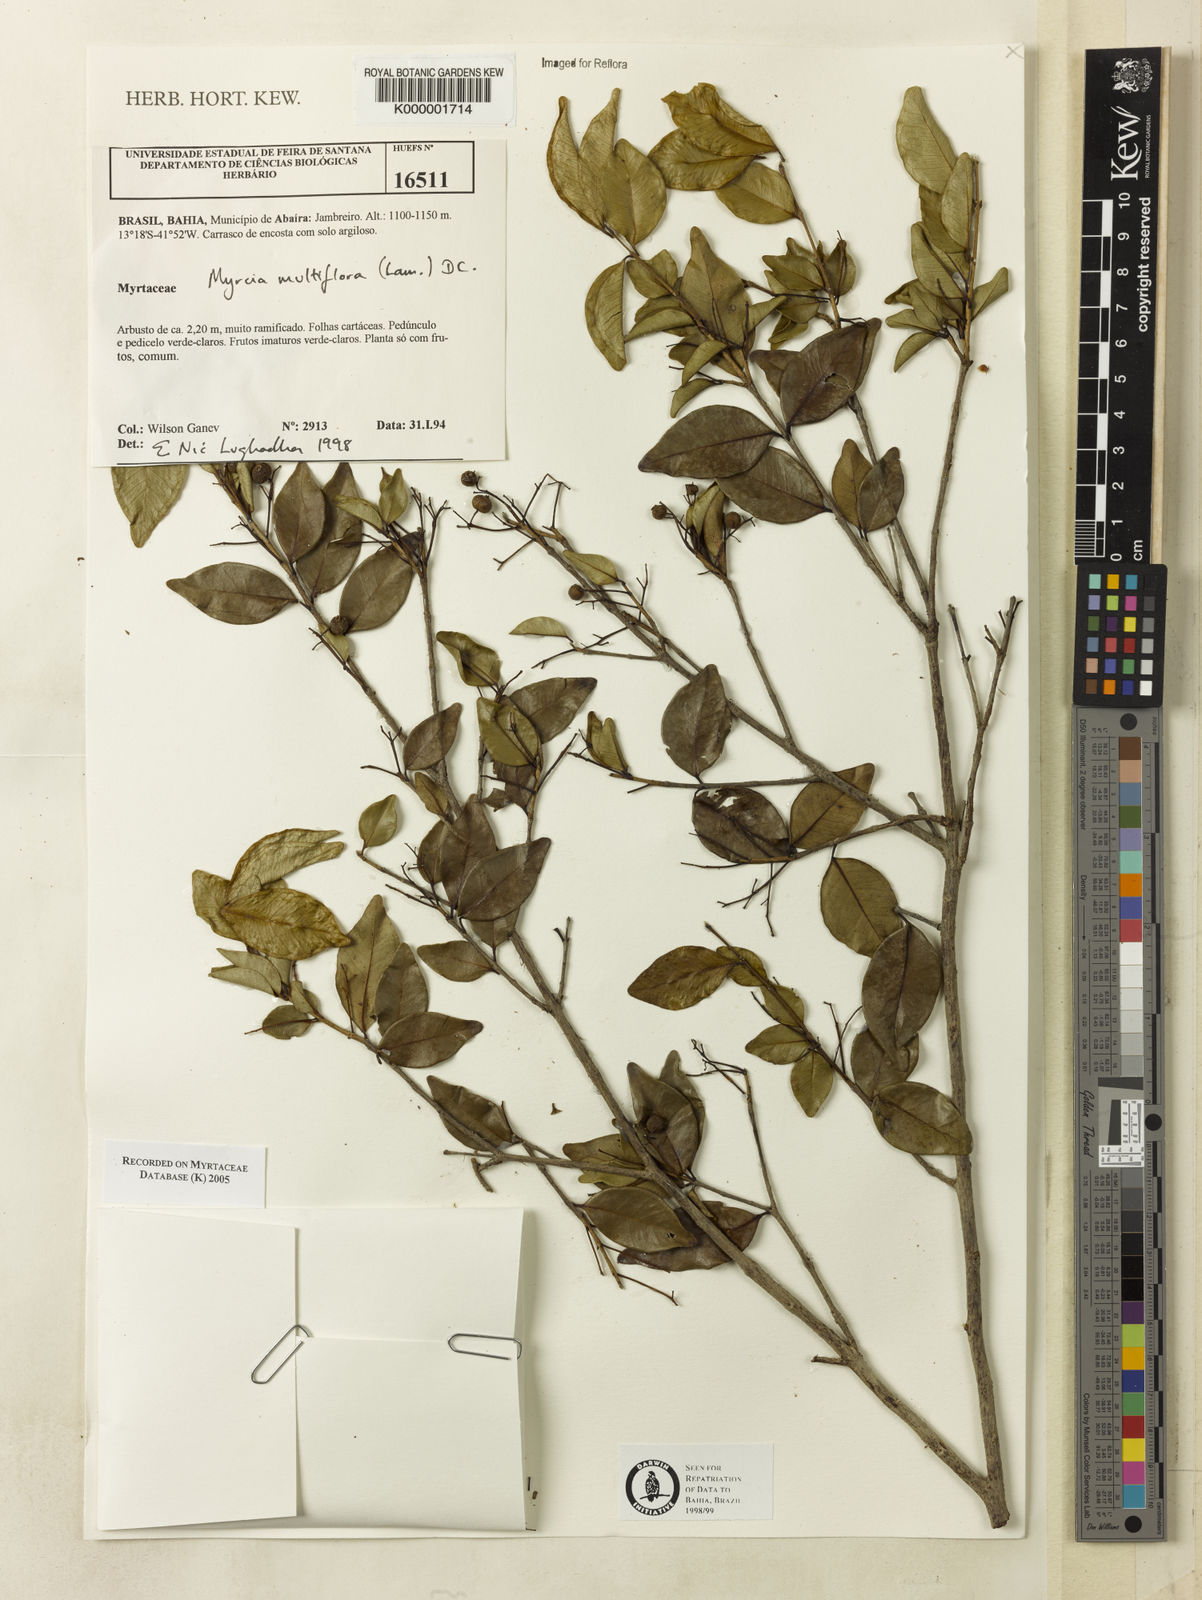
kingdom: Plantae
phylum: Tracheophyta
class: Magnoliopsida
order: Myrtales
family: Myrtaceae
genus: Myrcia
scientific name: Myrcia multiflora
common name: Pedra hume
